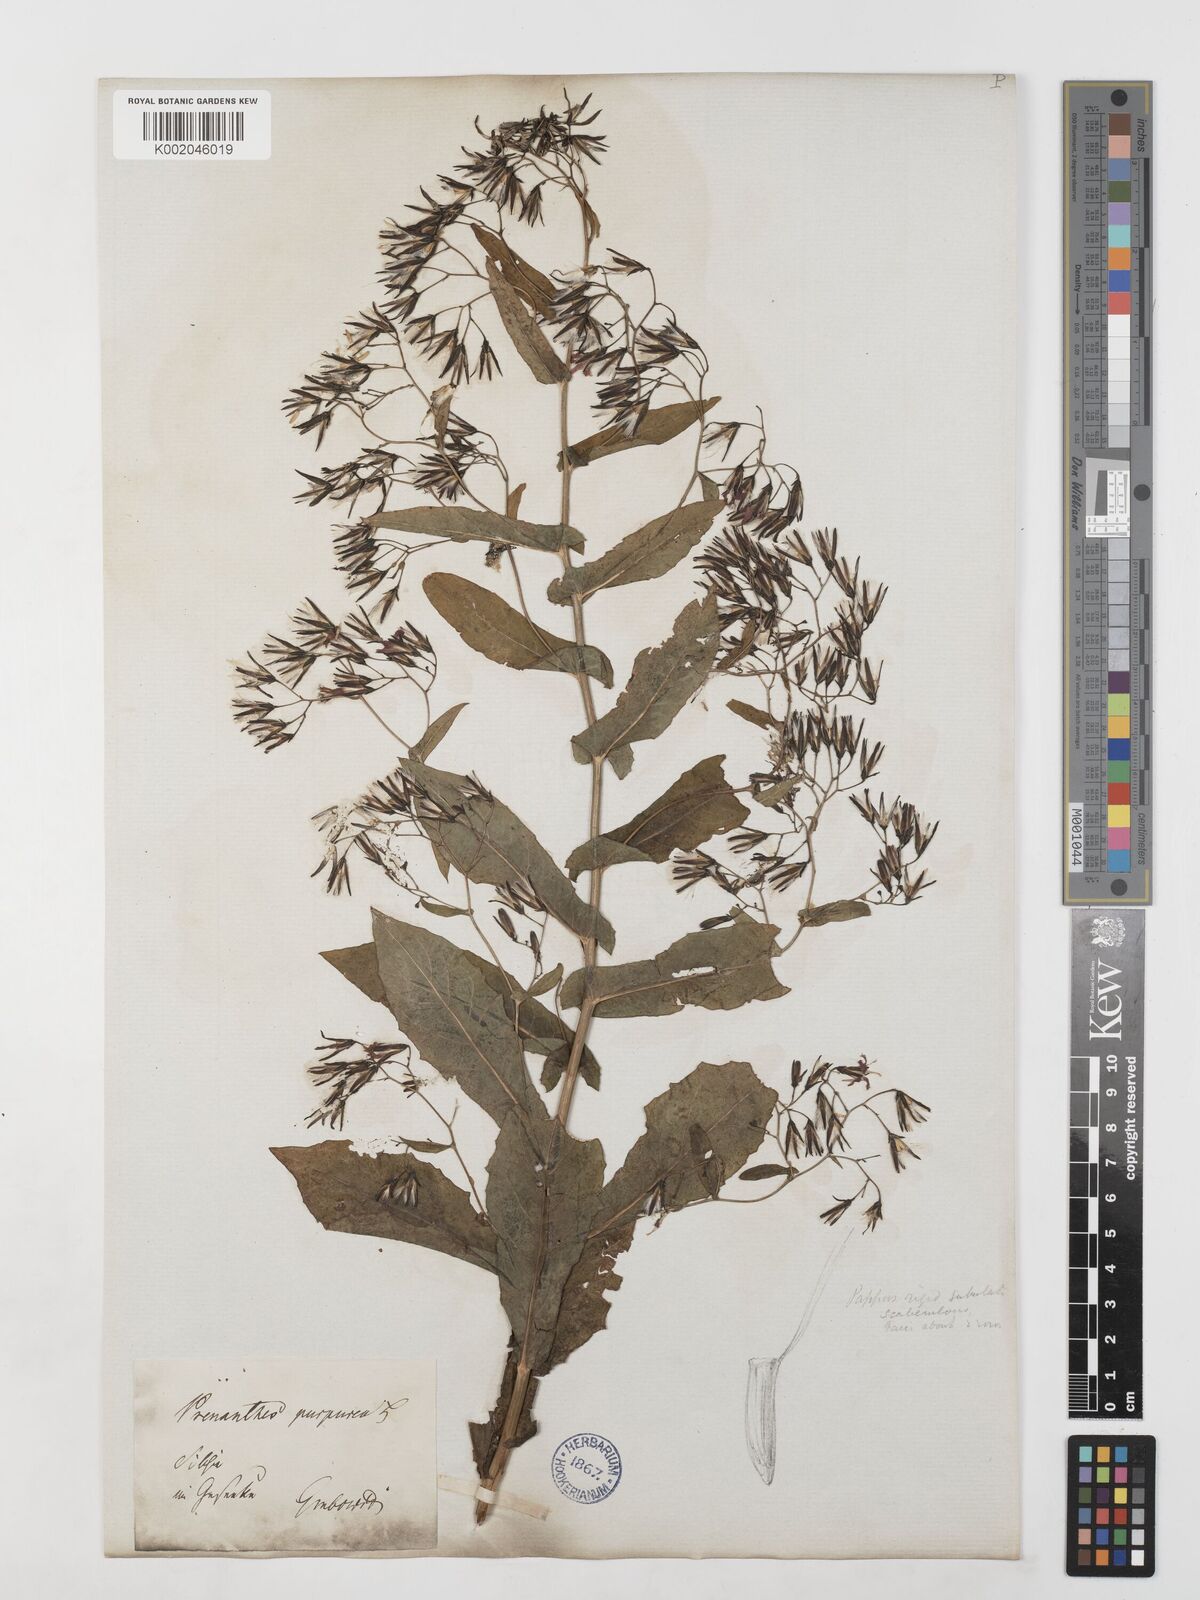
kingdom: Plantae
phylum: Tracheophyta
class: Magnoliopsida
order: Asterales
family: Asteraceae
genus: Prenanthes
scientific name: Prenanthes purpurea
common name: Purple lettuce
